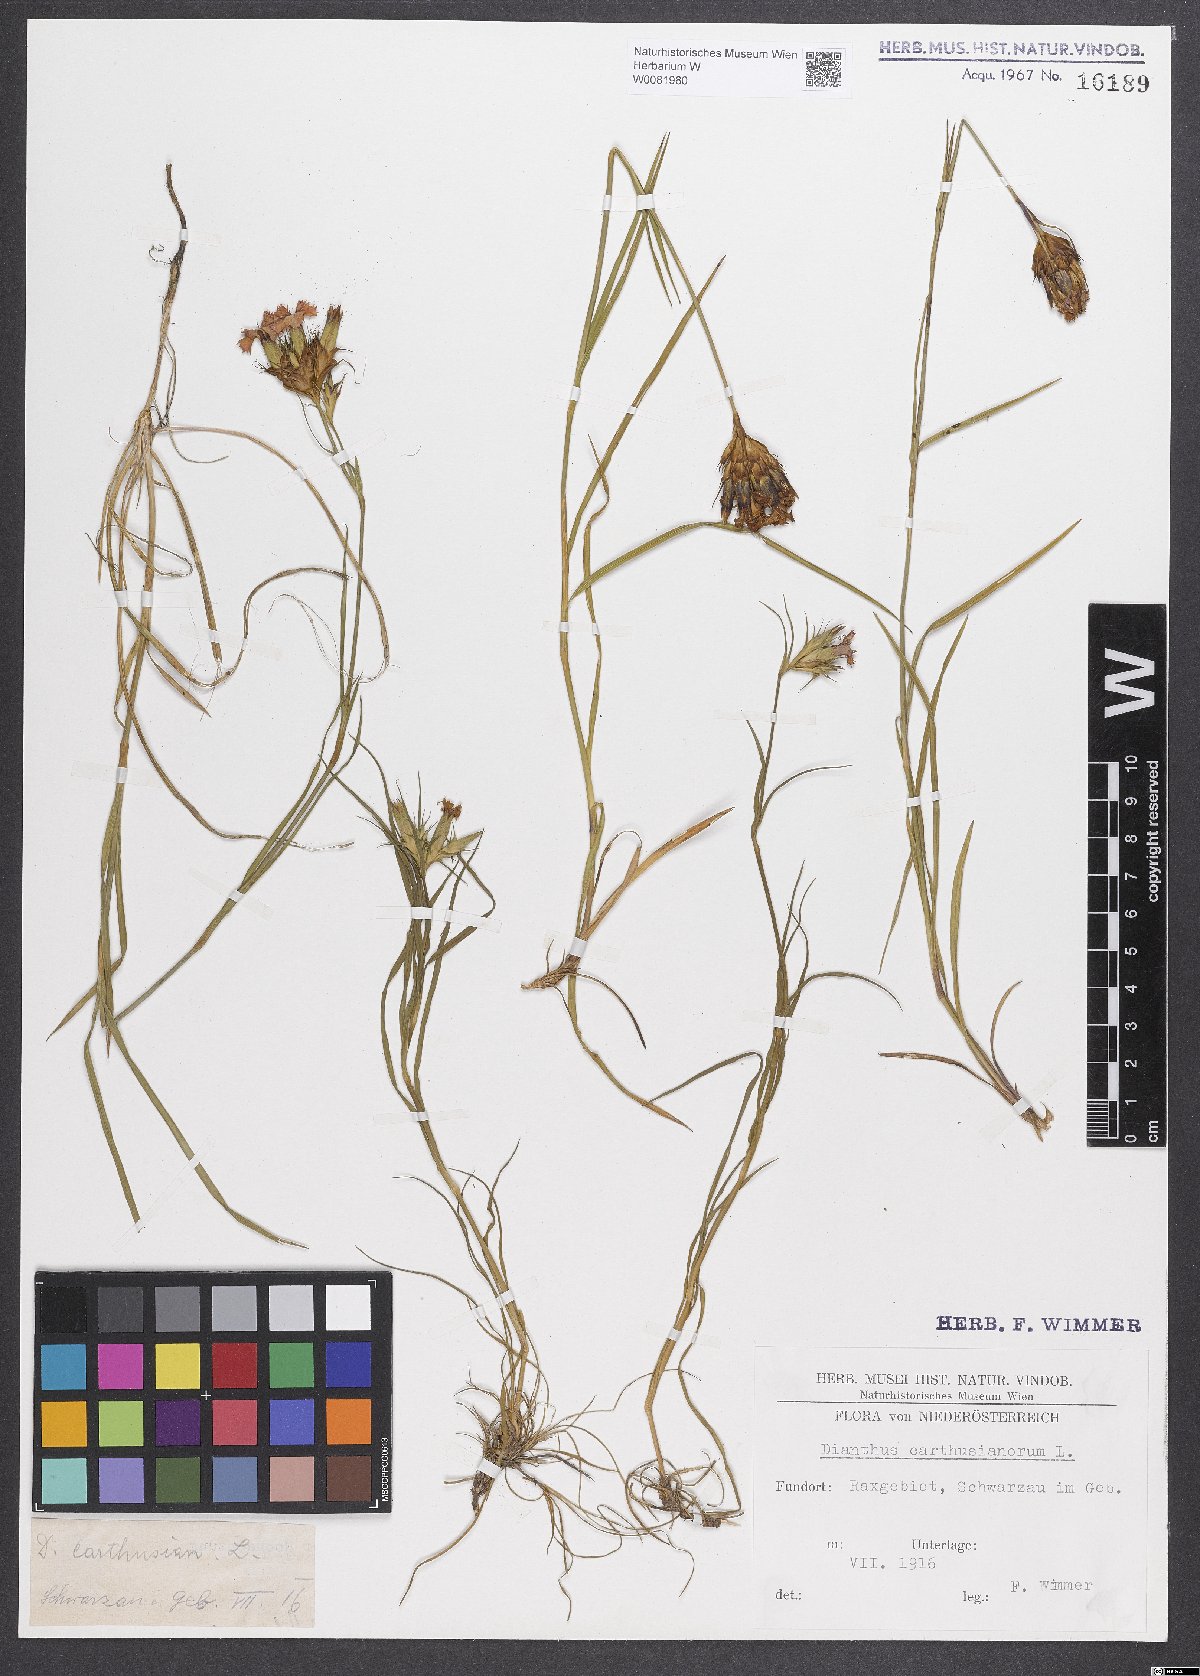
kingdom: Plantae
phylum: Tracheophyta
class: Magnoliopsida
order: Caryophyllales
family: Caryophyllaceae
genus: Dianthus
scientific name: Dianthus carthusianorum
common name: Carthusian pink
